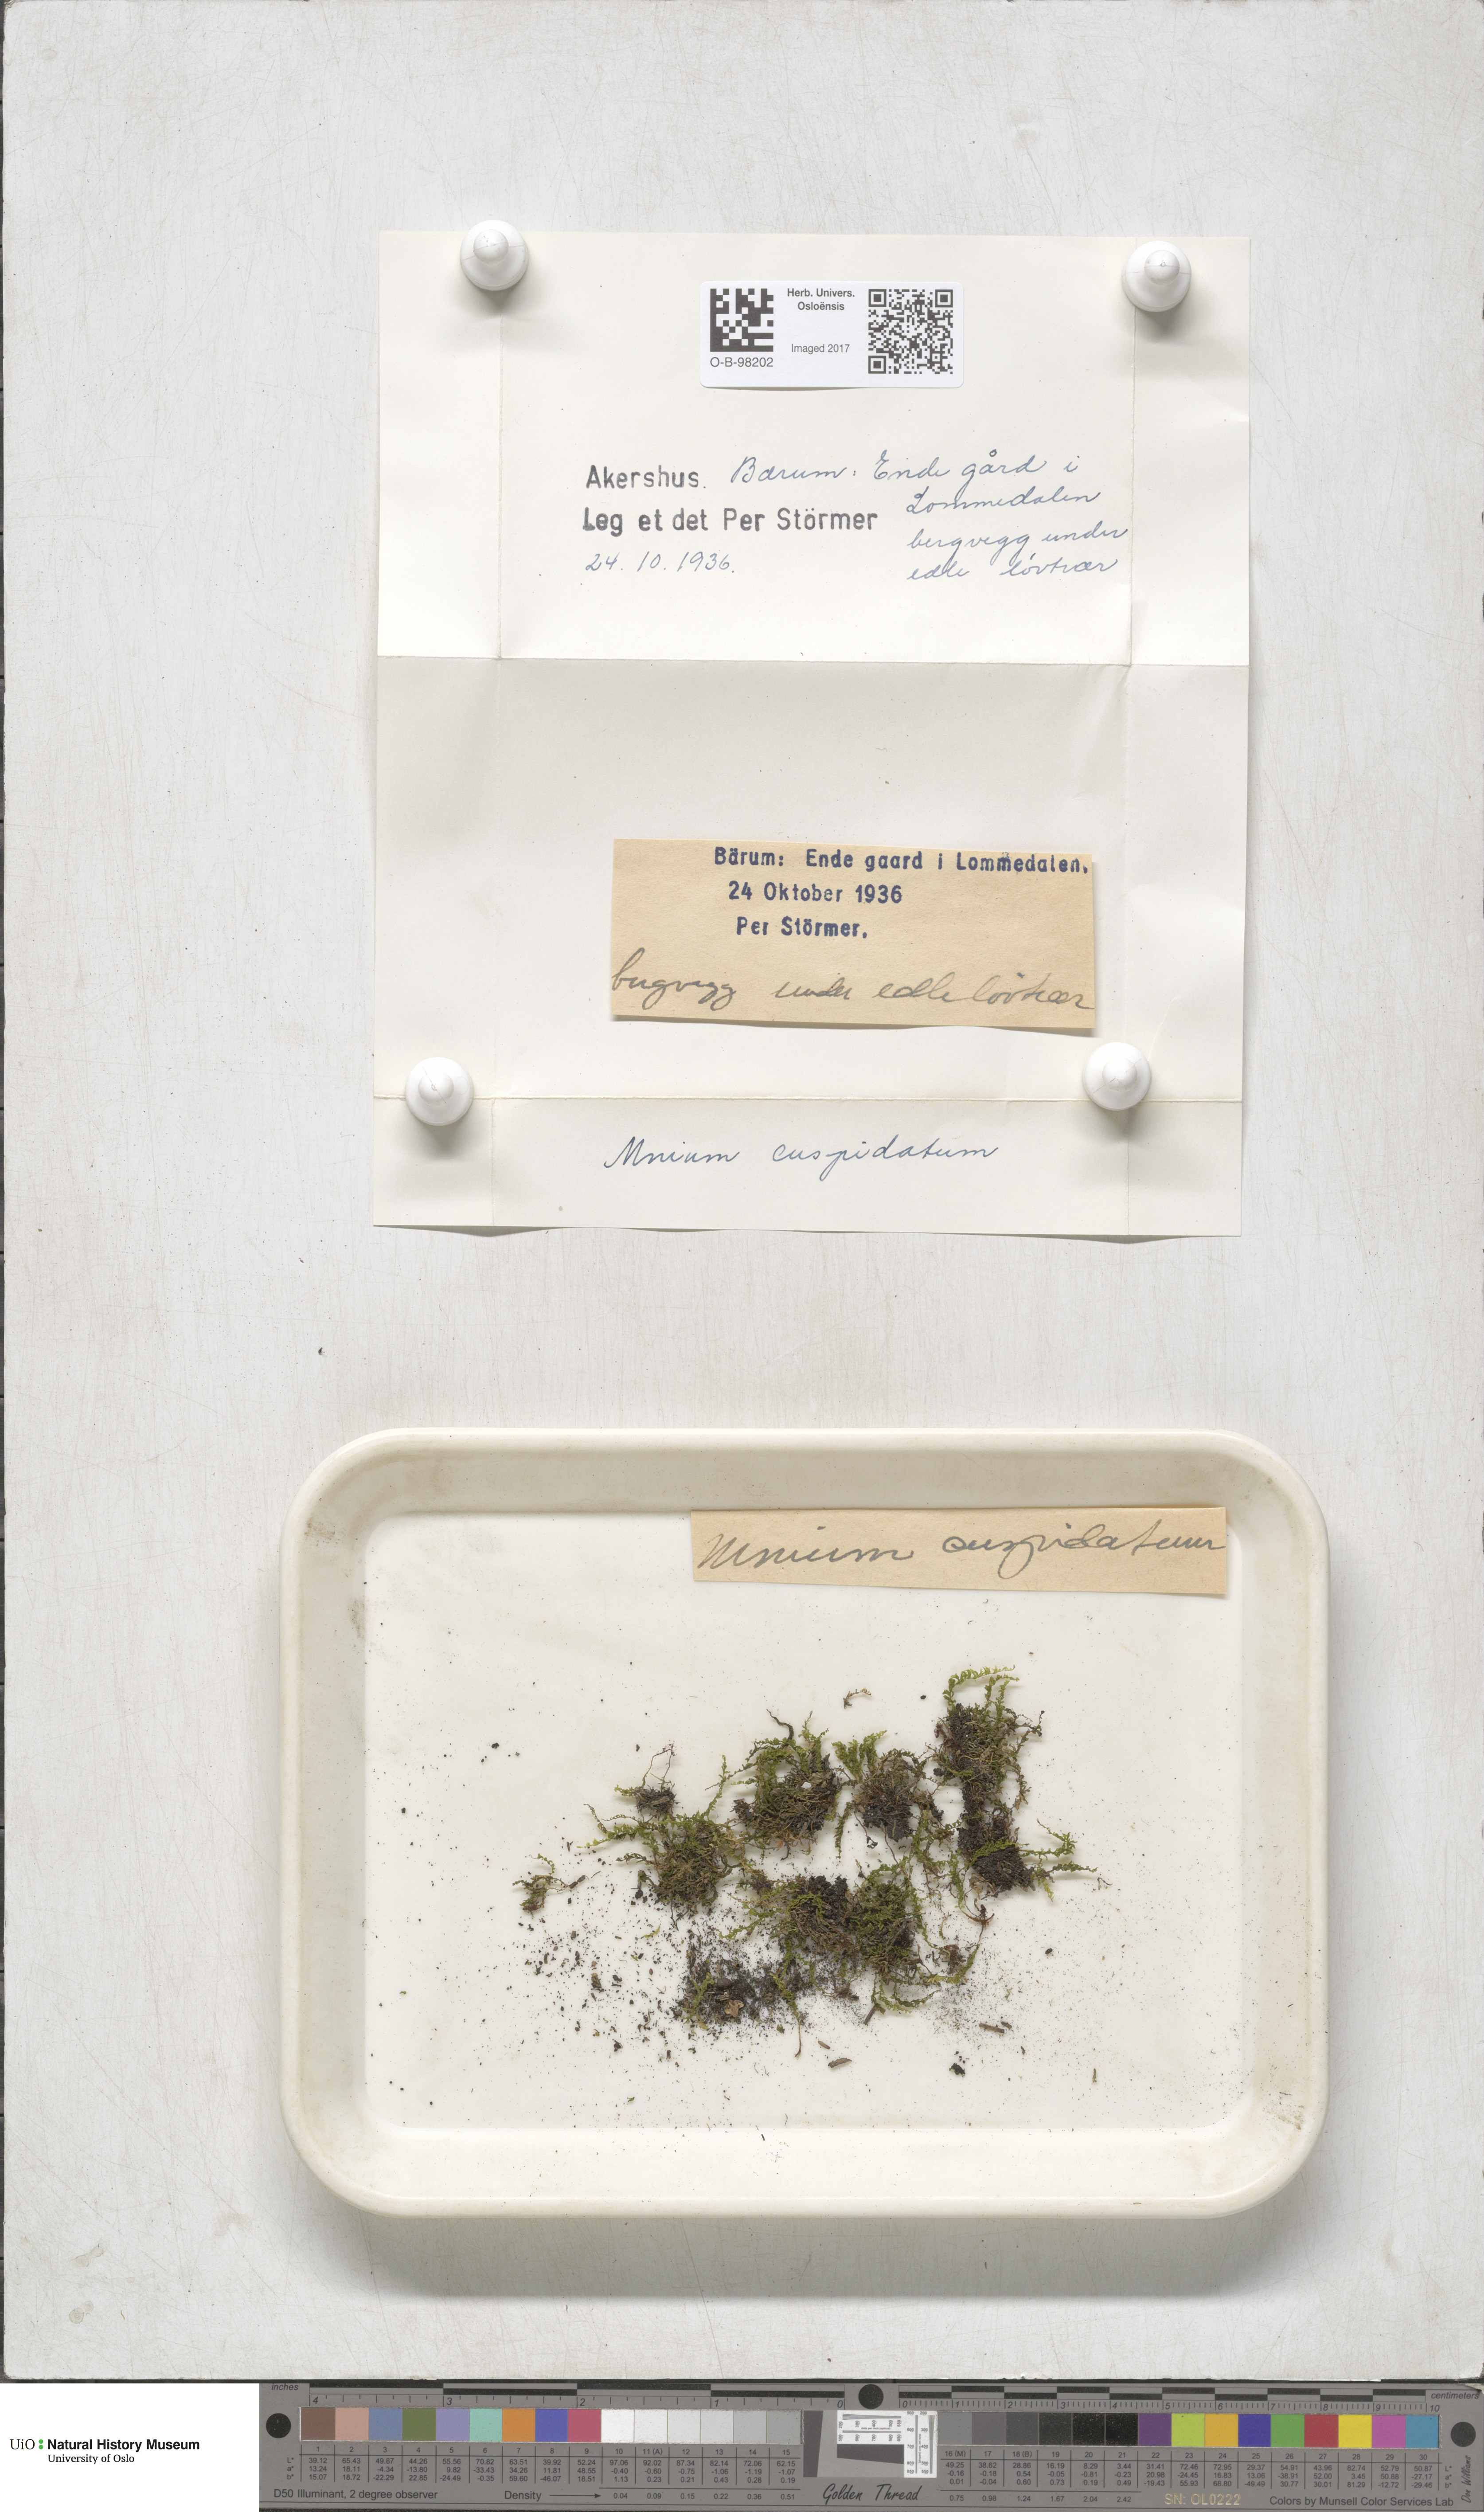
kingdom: Plantae
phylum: Bryophyta
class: Bryopsida
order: Bryales
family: Mniaceae
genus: Plagiomnium
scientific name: Plagiomnium affine
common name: Many-fruited thyme-moss
